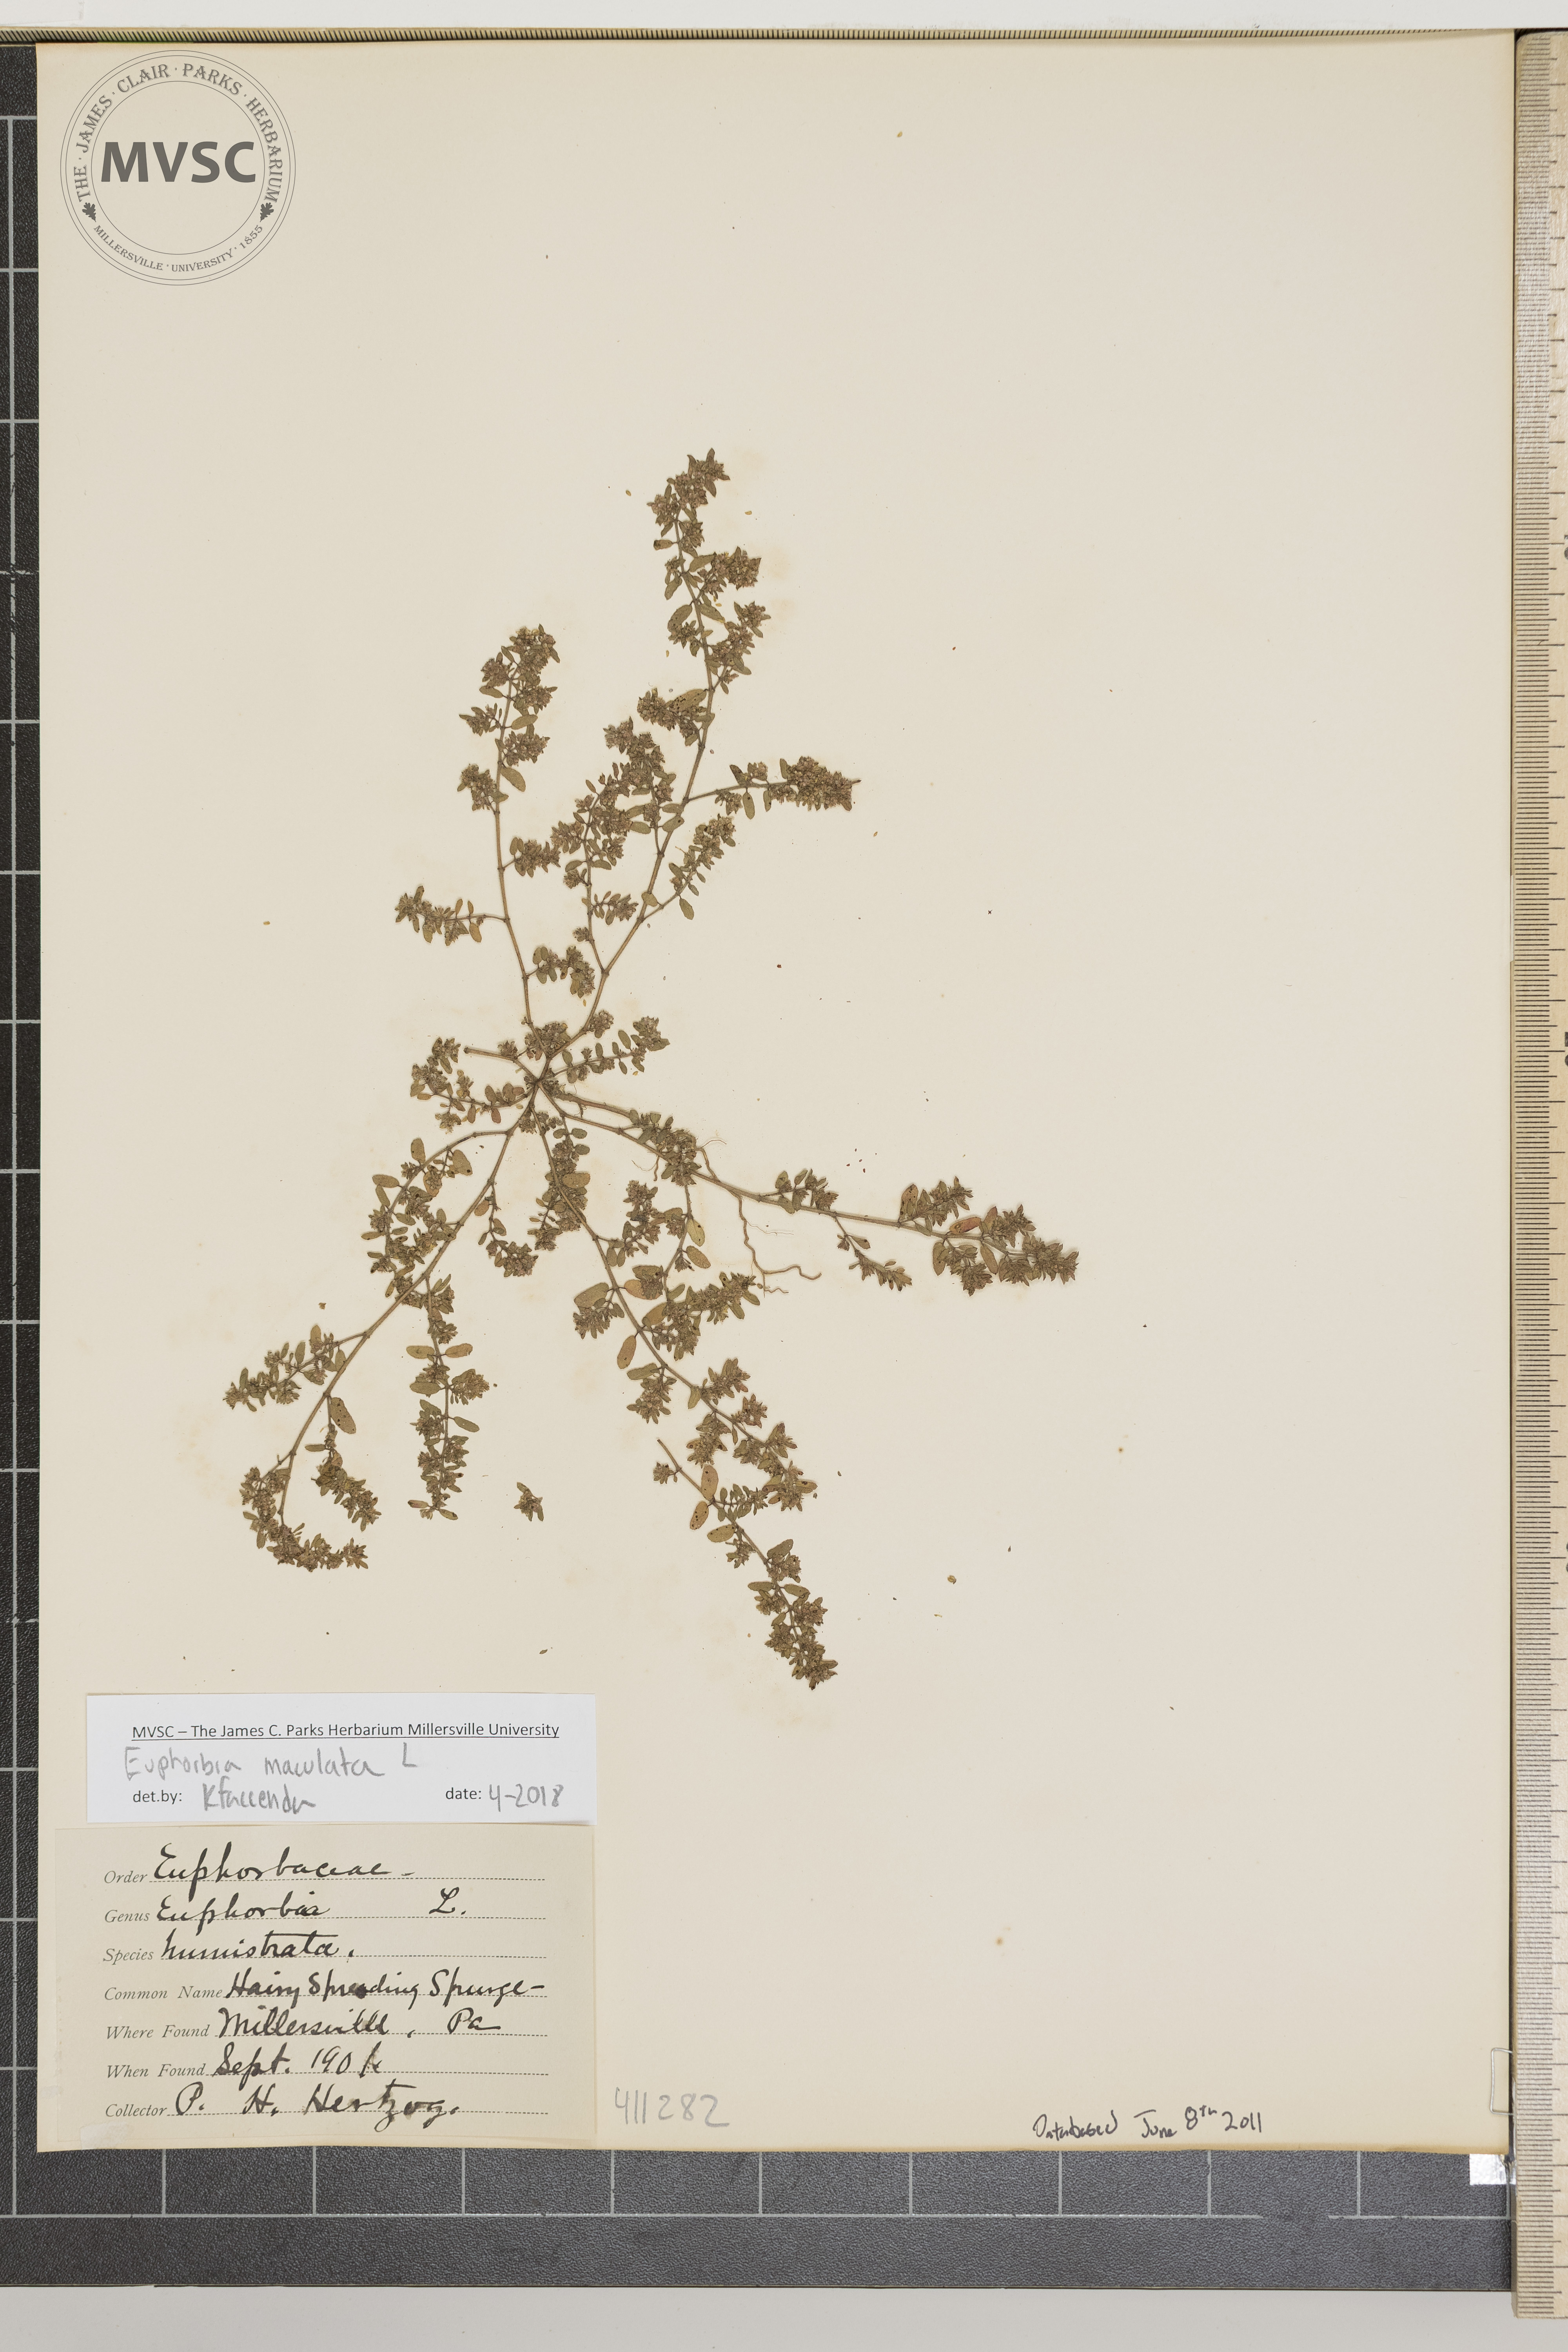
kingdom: Plantae
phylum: Tracheophyta
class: Magnoliopsida
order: Malpighiales
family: Euphorbiaceae
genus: Euphorbia
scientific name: Euphorbia maculata
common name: Spotted spurge
